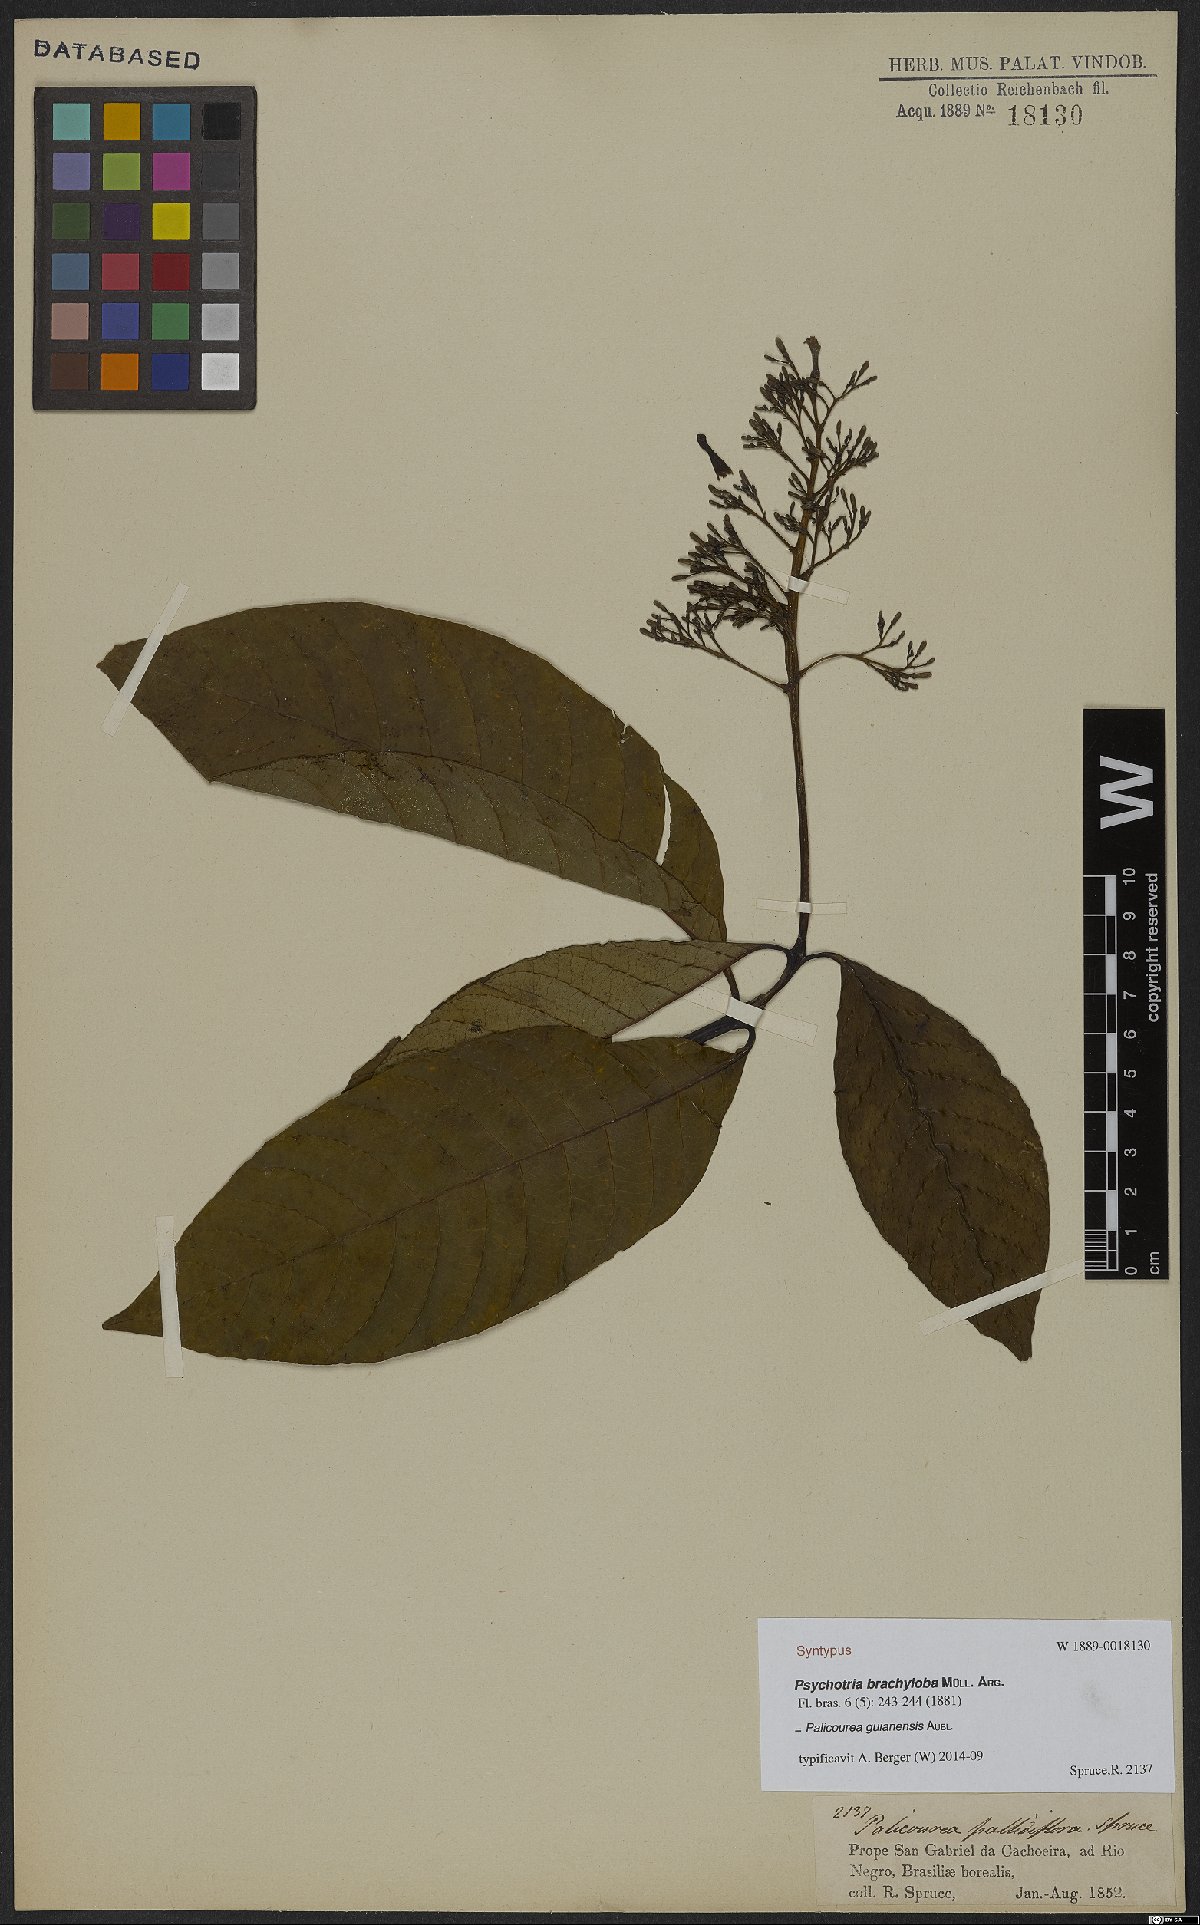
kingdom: Plantae
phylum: Tracheophyta
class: Magnoliopsida
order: Gentianales
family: Rubiaceae
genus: Palicourea
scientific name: Palicourea brachyloba
